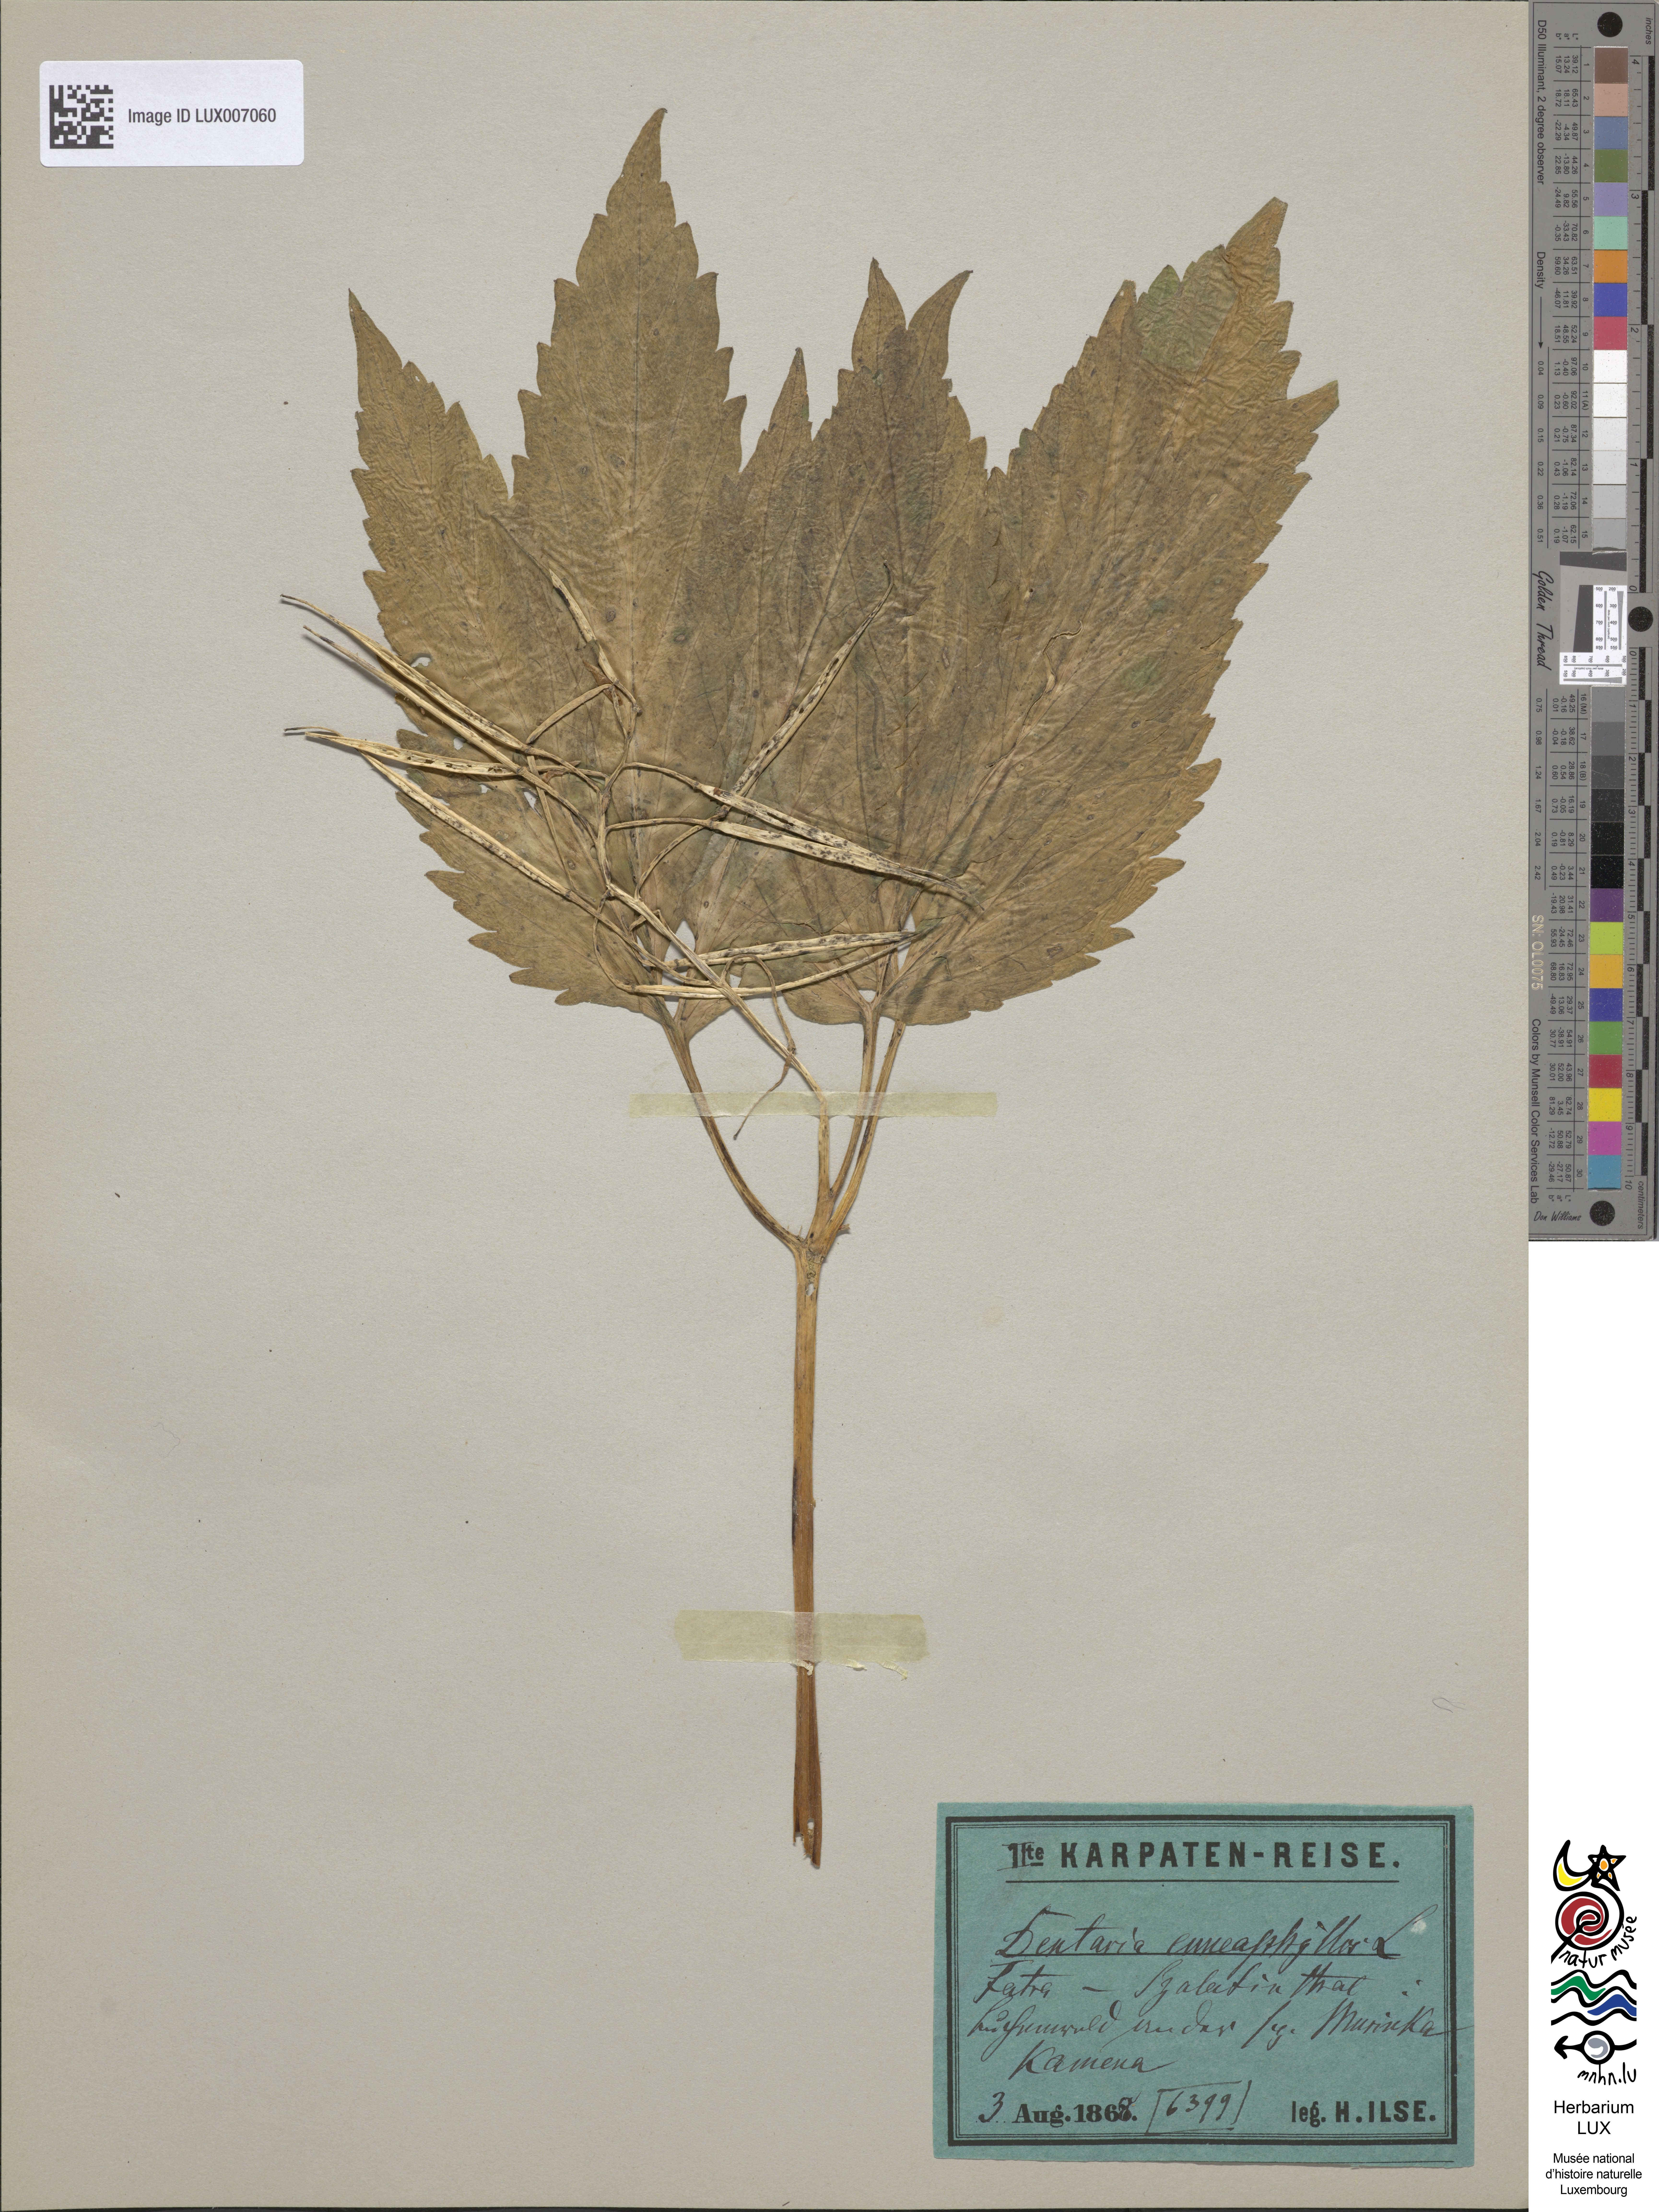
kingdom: Plantae
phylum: Tracheophyta
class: Magnoliopsida
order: Brassicales
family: Brassicaceae
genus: Cardamine
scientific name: Cardamine enneaphyllos
